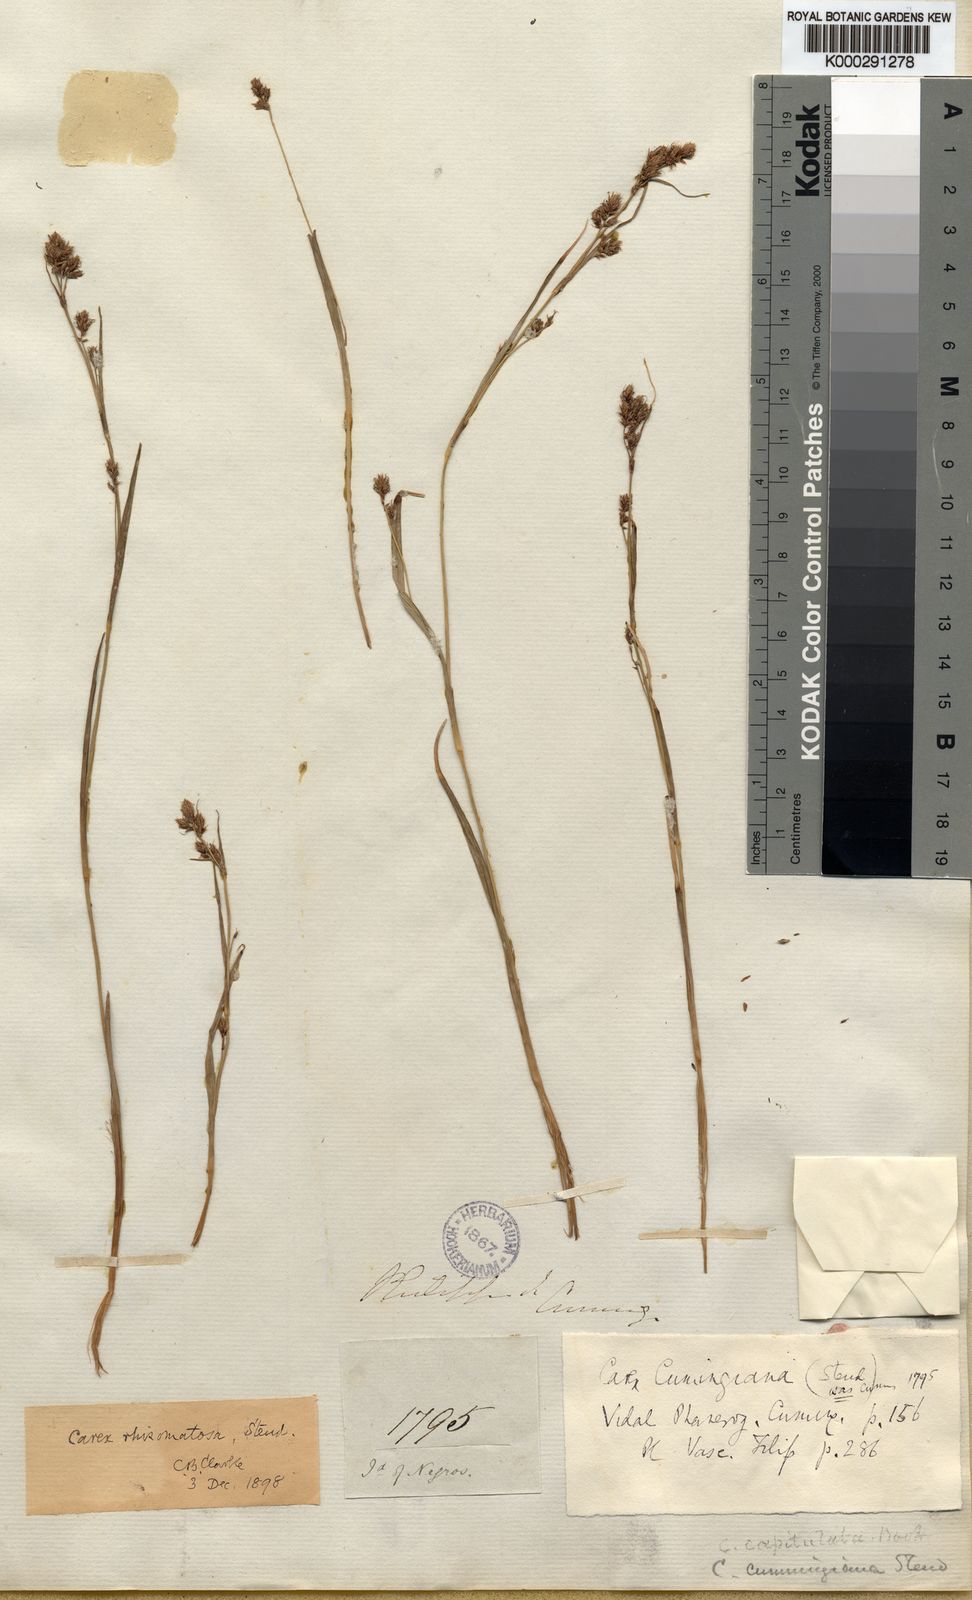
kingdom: Plantae
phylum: Tracheophyta
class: Liliopsida
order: Poales
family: Cyperaceae
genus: Carex
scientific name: Carex oligostachya
